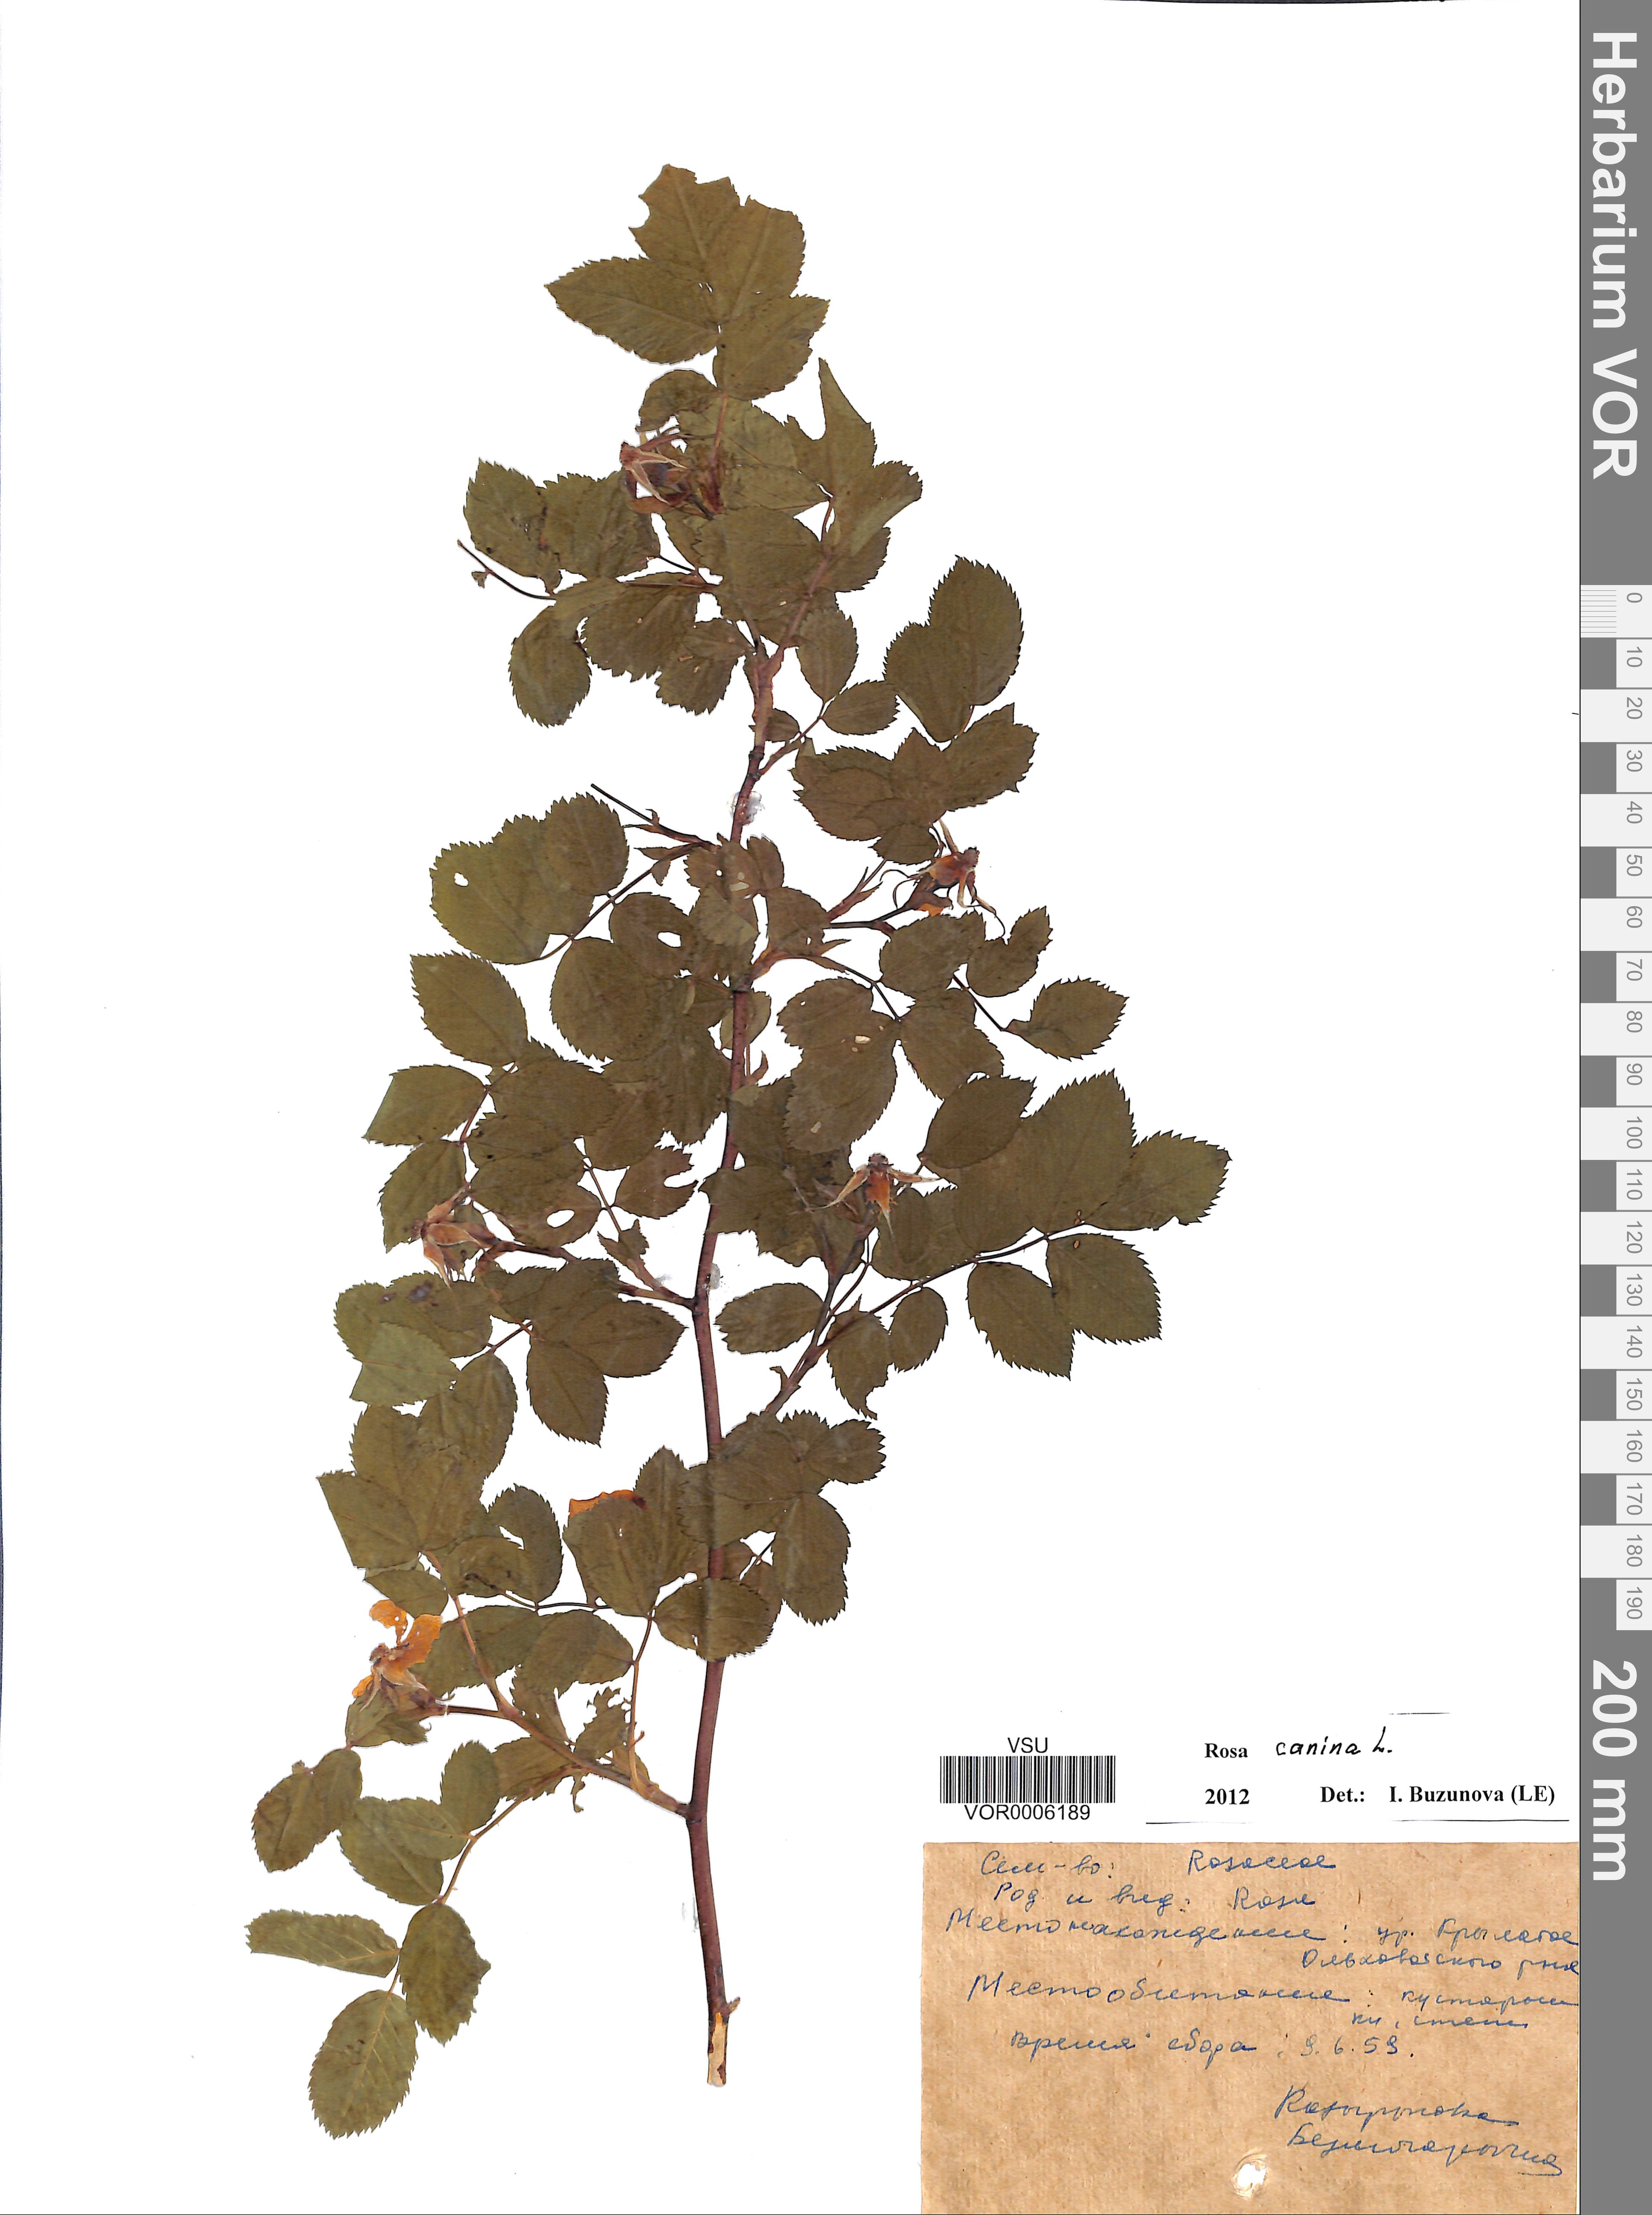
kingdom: Plantae
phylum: Tracheophyta
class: Magnoliopsida
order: Rosales
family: Rosaceae
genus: Rosa
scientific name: Rosa canina
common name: Dog rose
